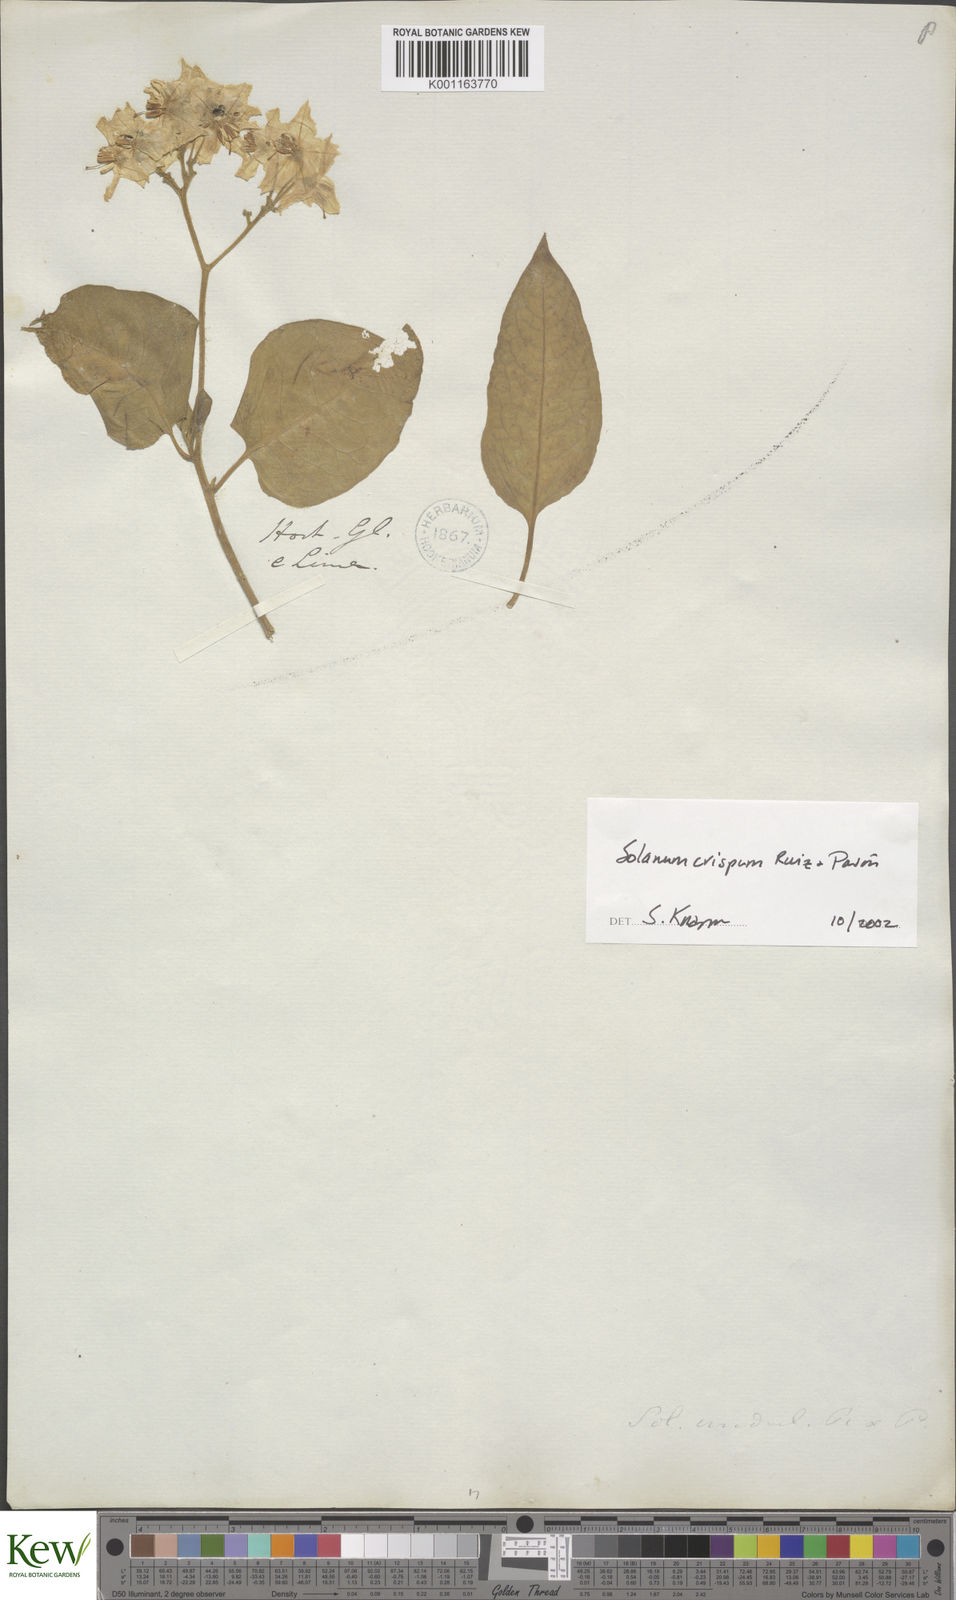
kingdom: Plantae
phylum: Tracheophyta
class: Magnoliopsida
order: Solanales
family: Solanaceae
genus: Solanum
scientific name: Solanum crispum
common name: Chilean nightshade
